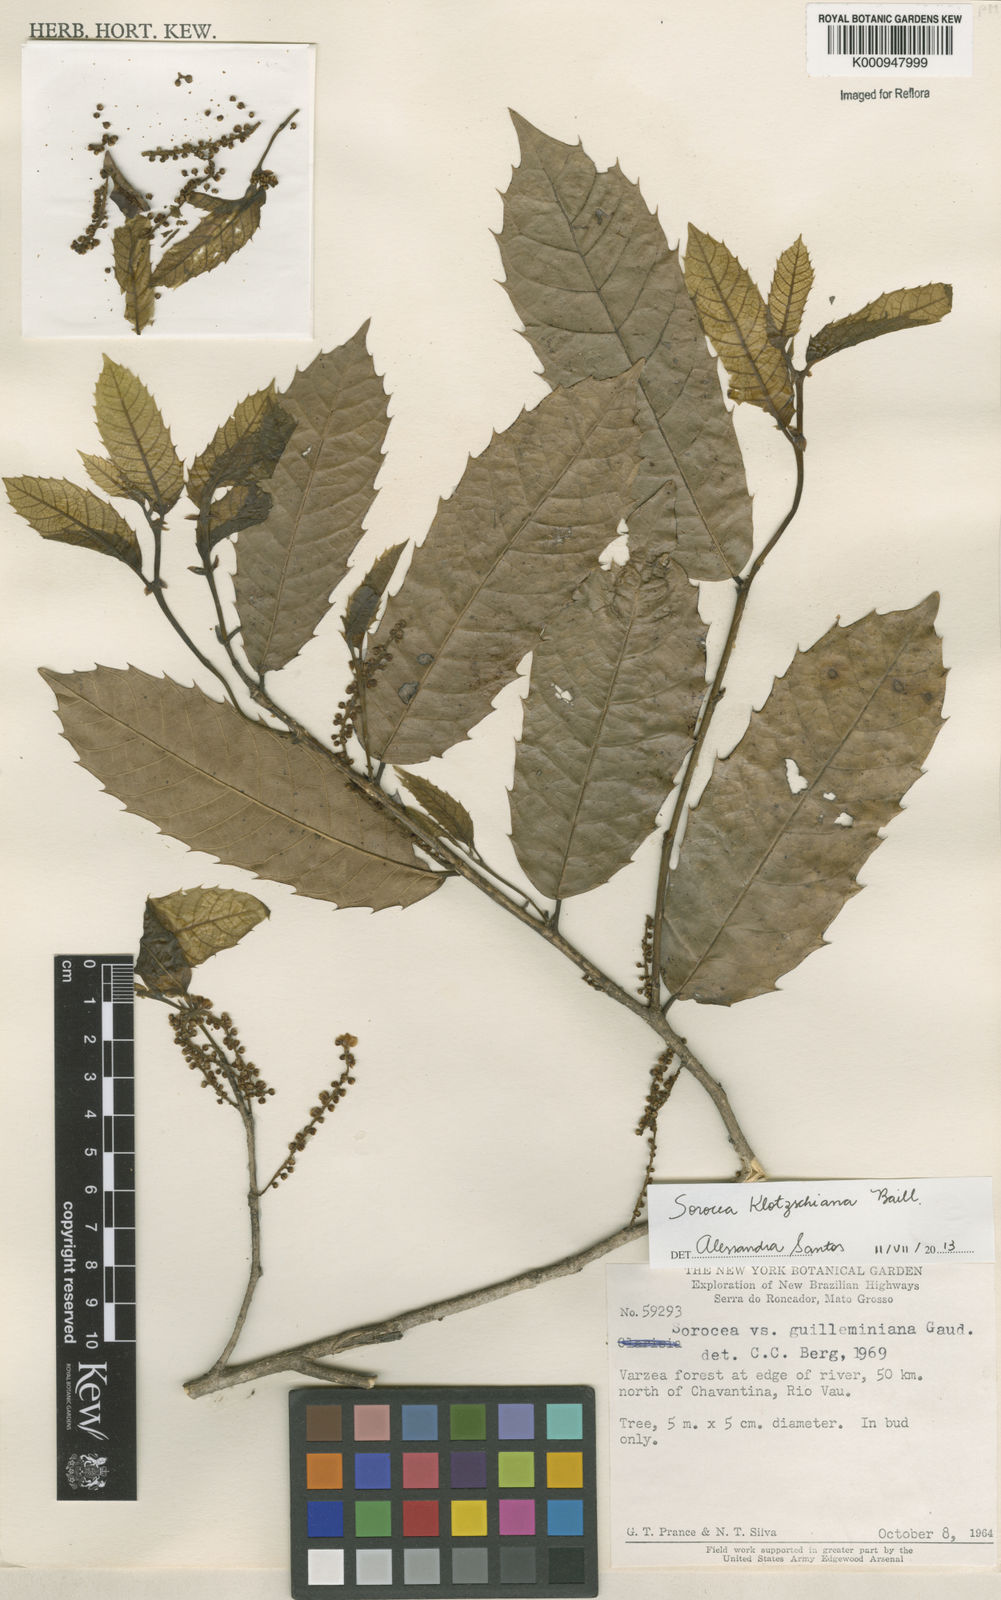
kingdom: Plantae
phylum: Tracheophyta
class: Magnoliopsida
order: Rosales
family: Moraceae
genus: Sorocea
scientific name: Sorocea guilleminiana
